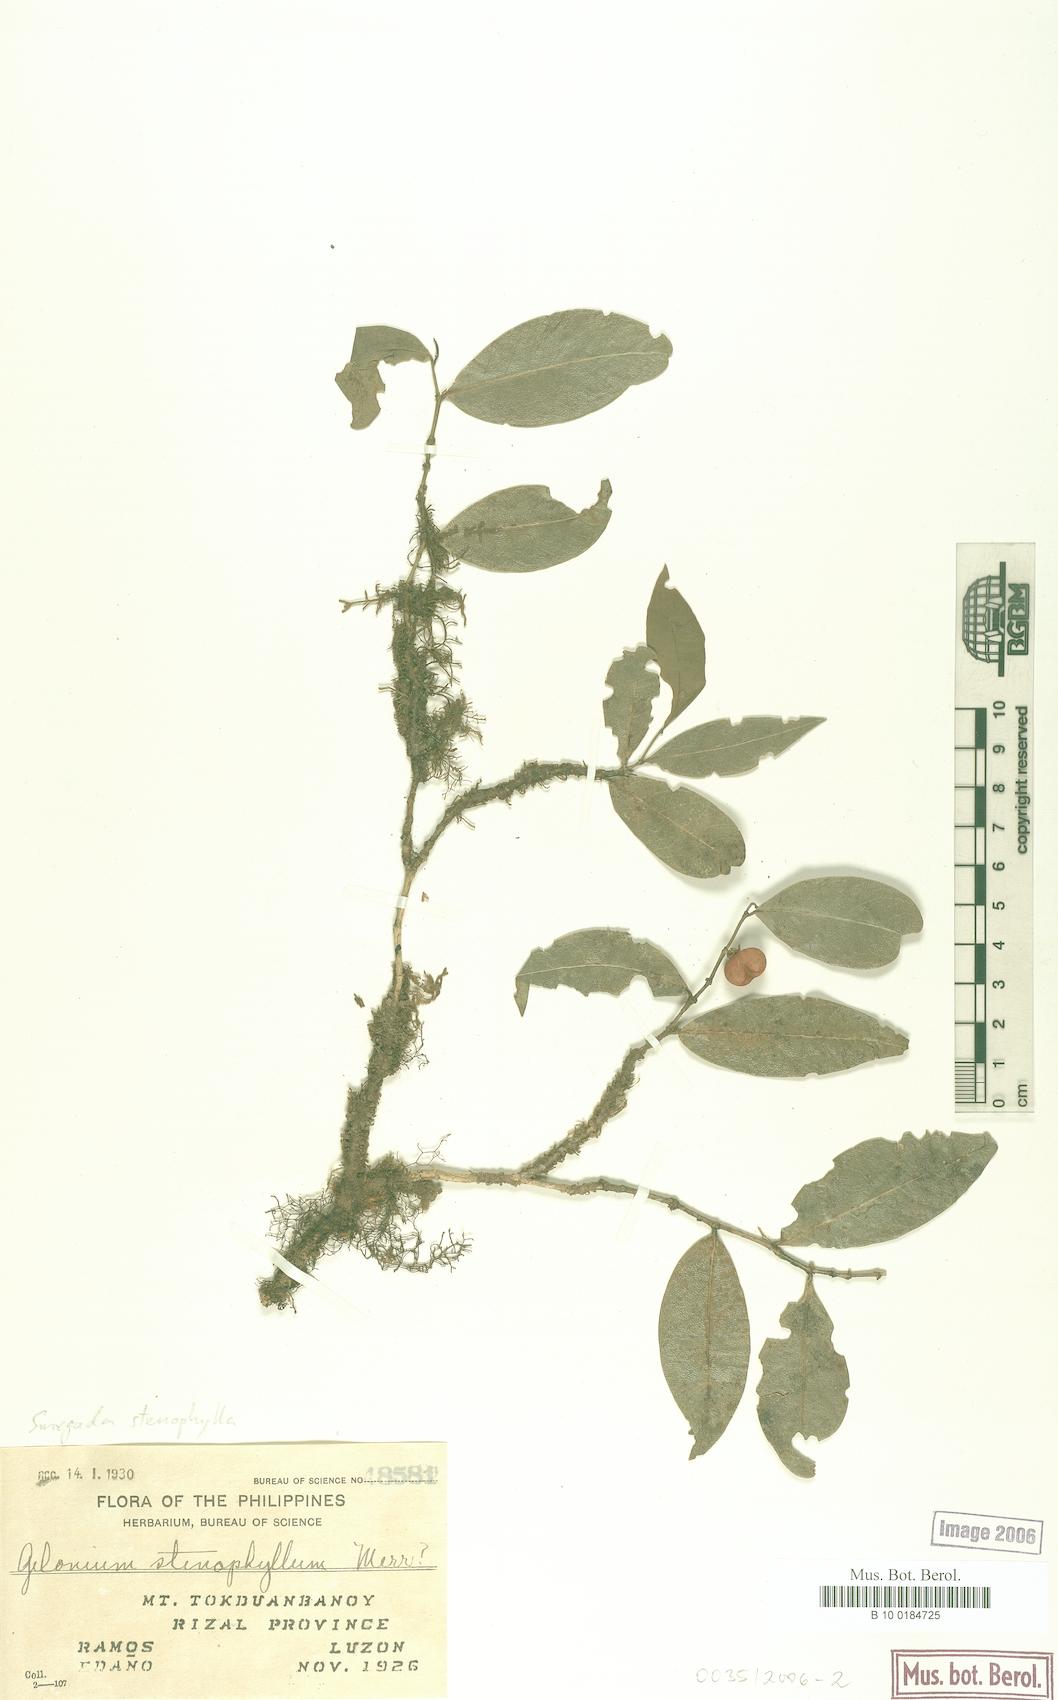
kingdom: Plantae
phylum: Tracheophyta
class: Magnoliopsida
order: Malpighiales
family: Euphorbiaceae
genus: Suregada
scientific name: Suregada stenophylla
